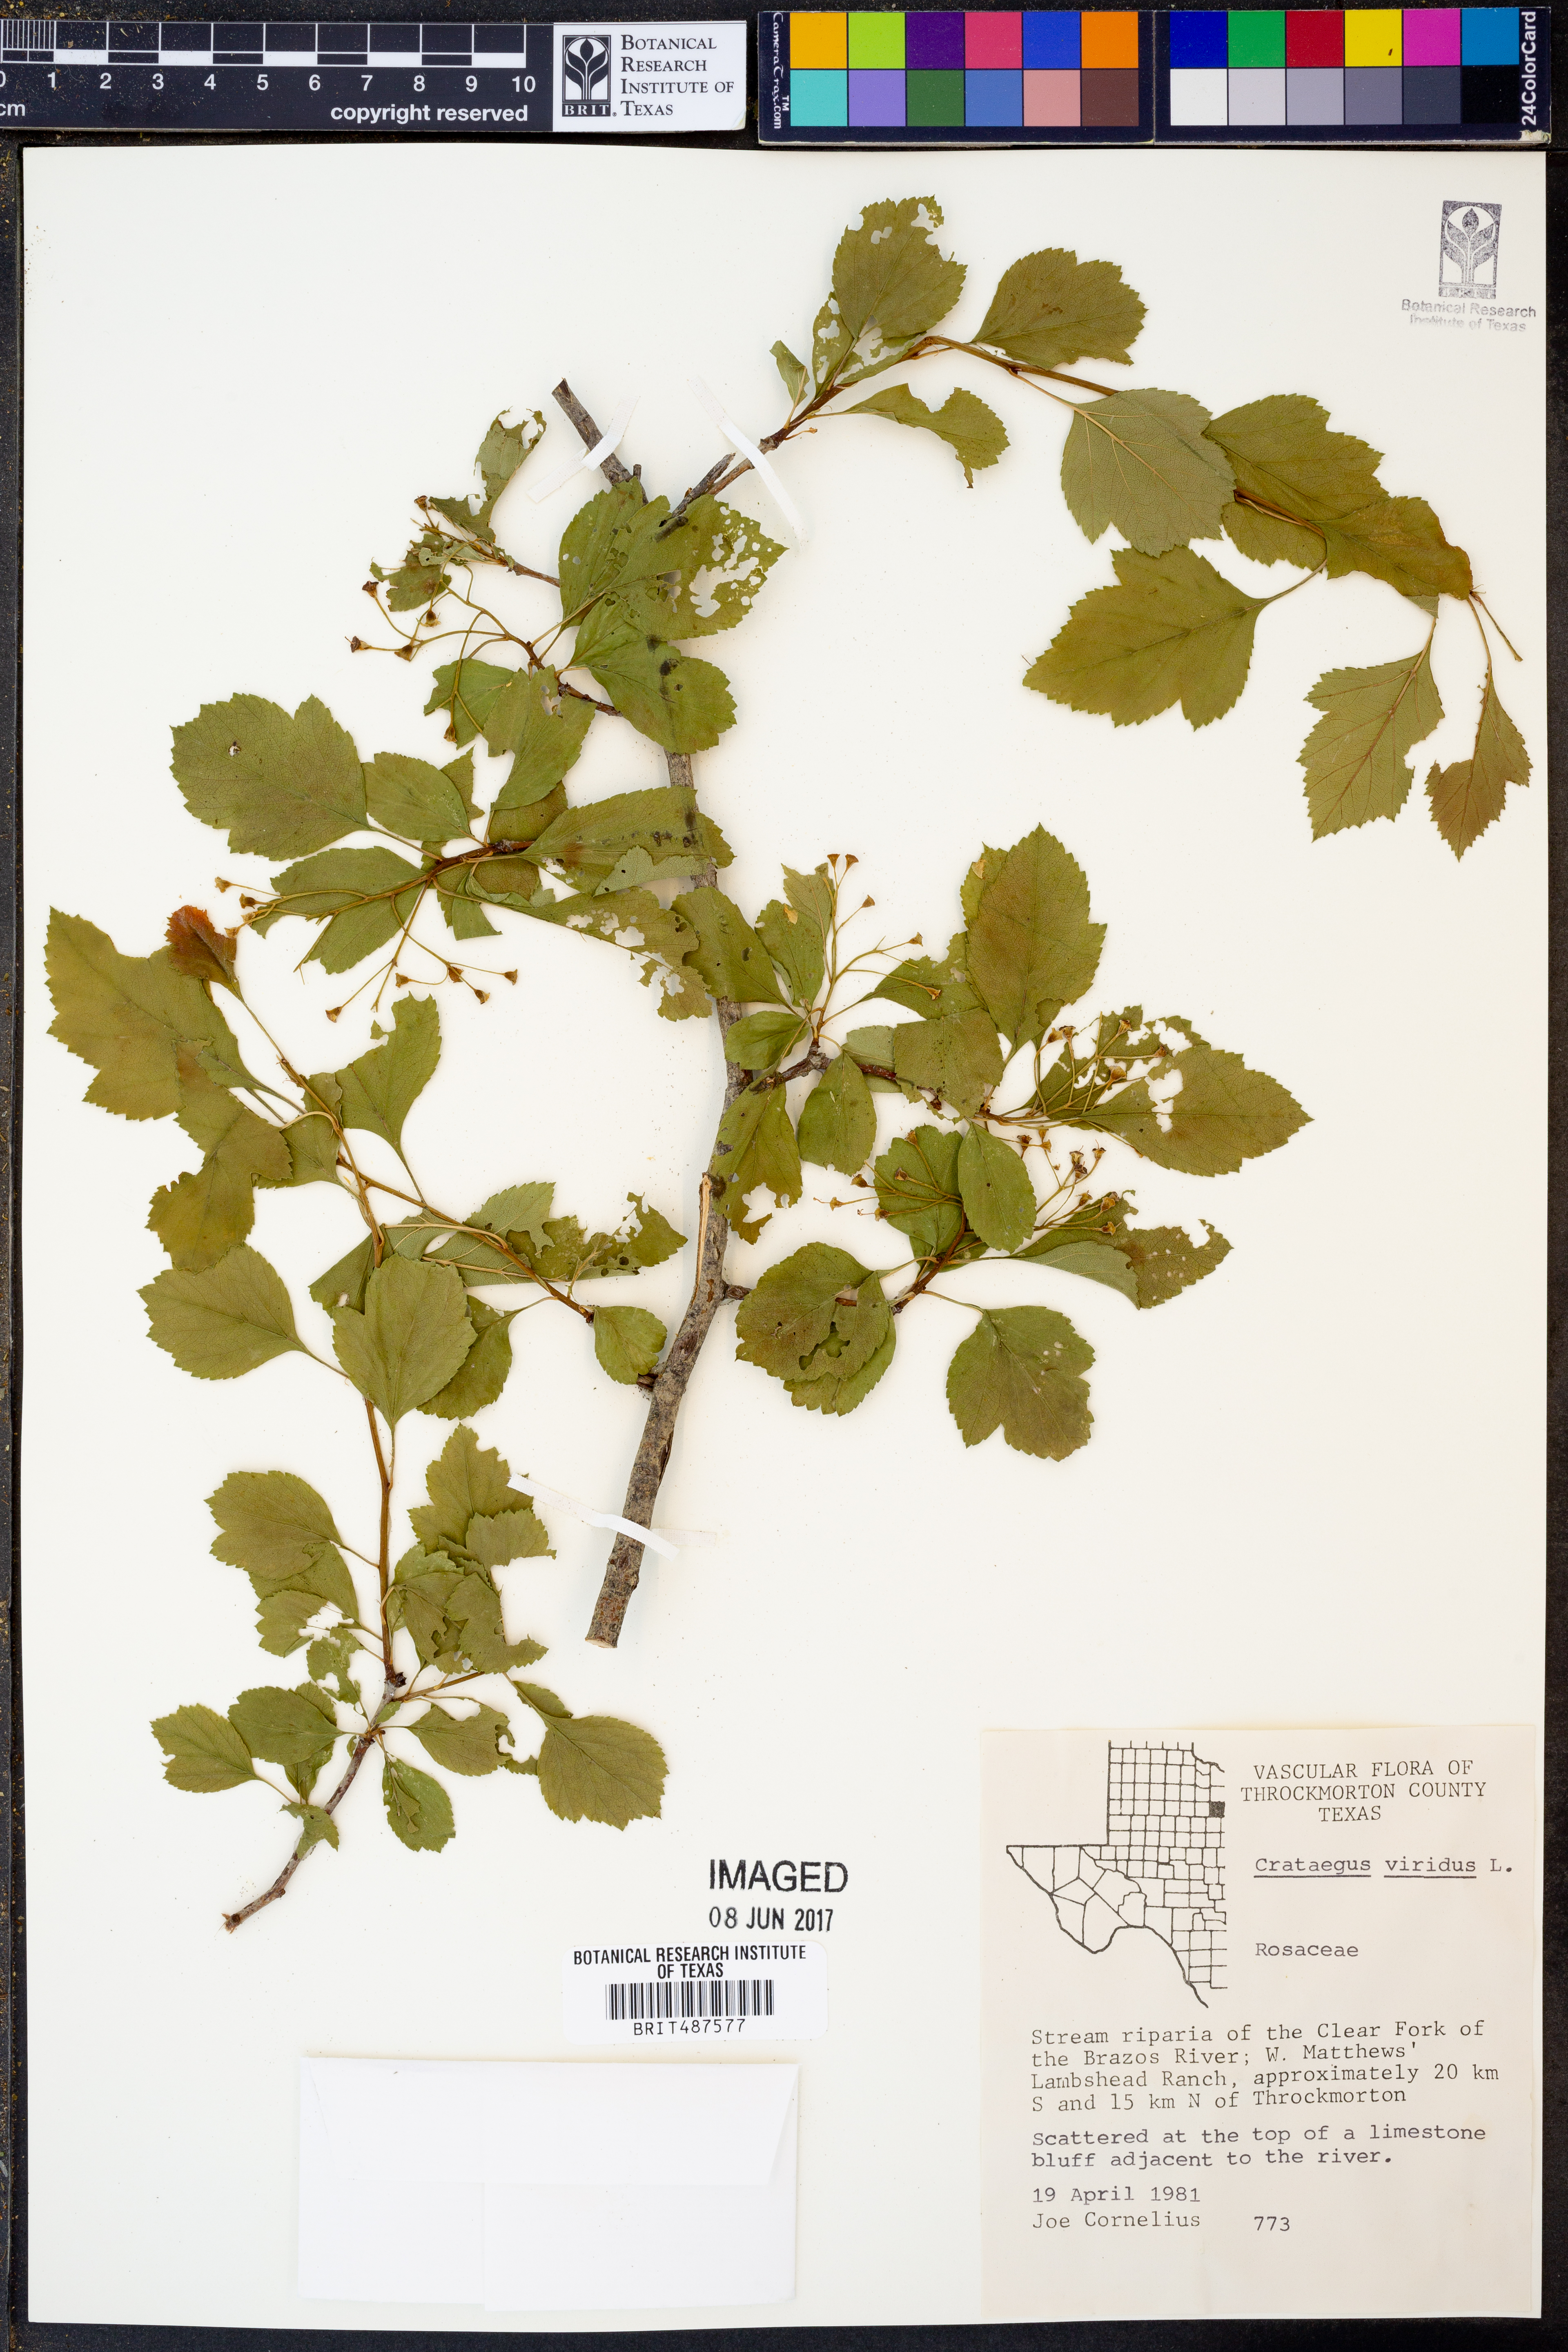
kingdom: Plantae
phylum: Tracheophyta
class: Magnoliopsida
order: Rosales
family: Rosaceae
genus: Crataegus
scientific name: Crataegus viridis
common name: Southernthorn
